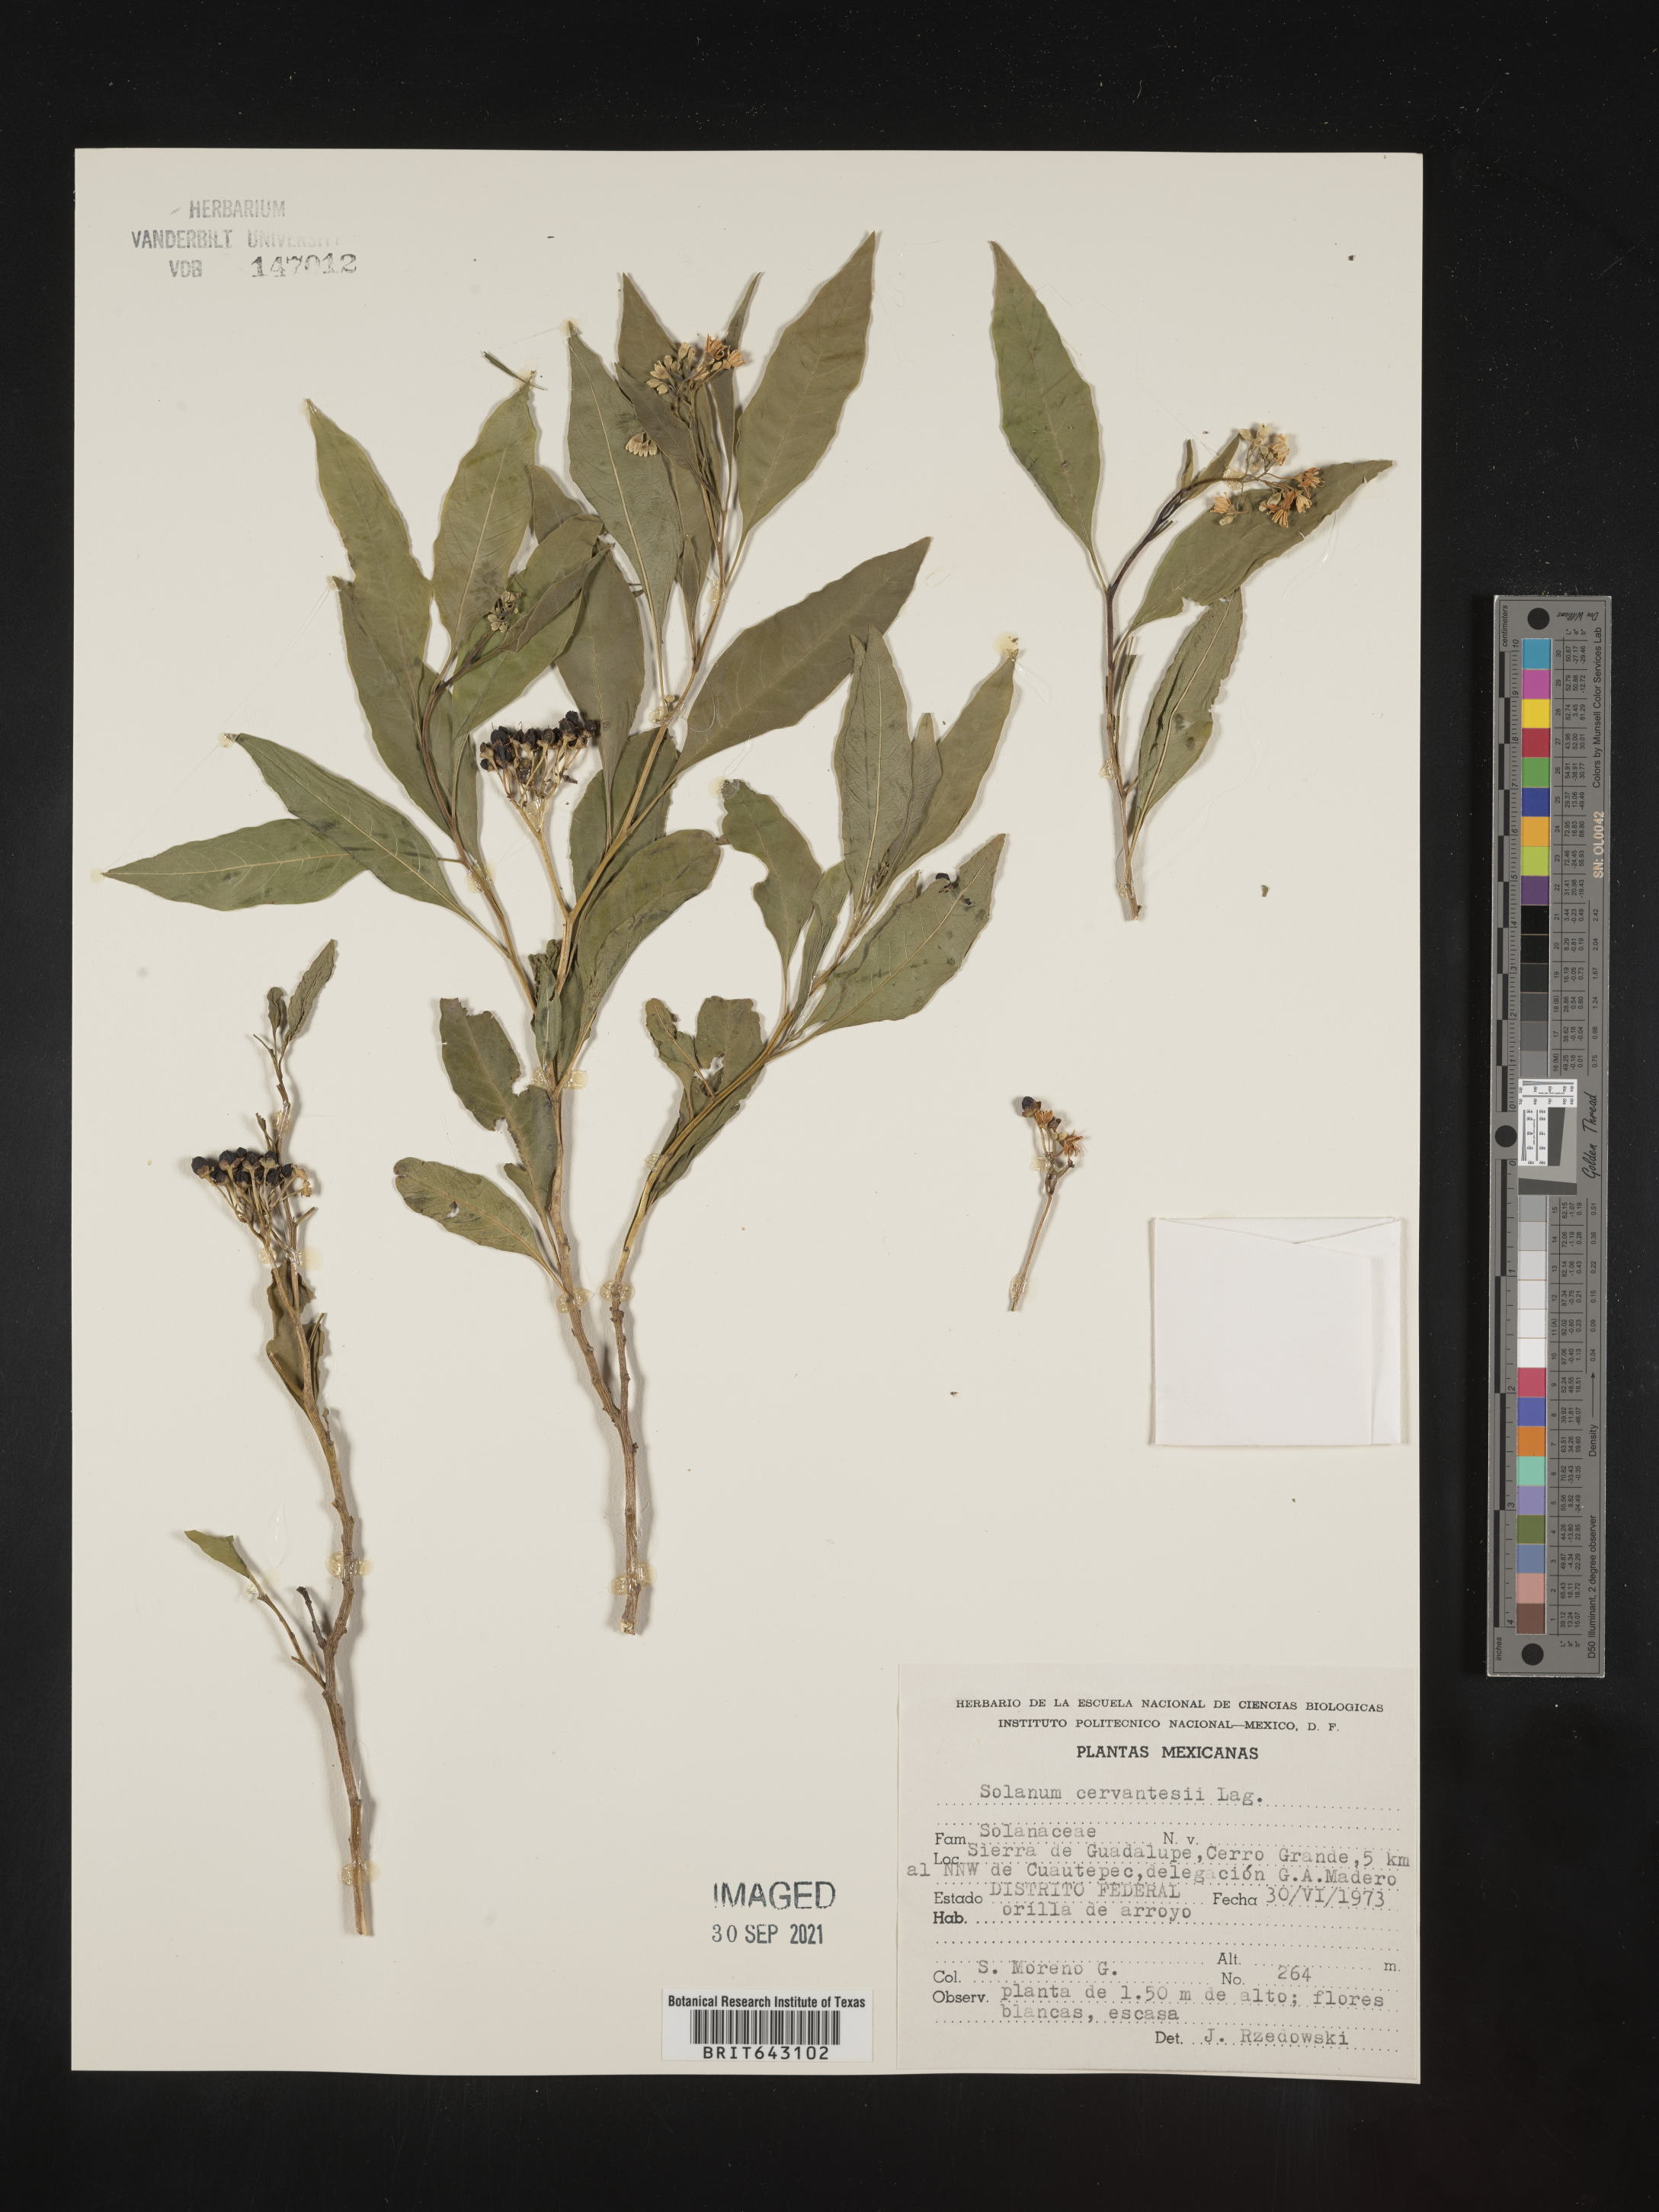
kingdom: Plantae
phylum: Tracheophyta
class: Magnoliopsida
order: Solanales
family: Solanaceae
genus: Solanum
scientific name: Solanum
